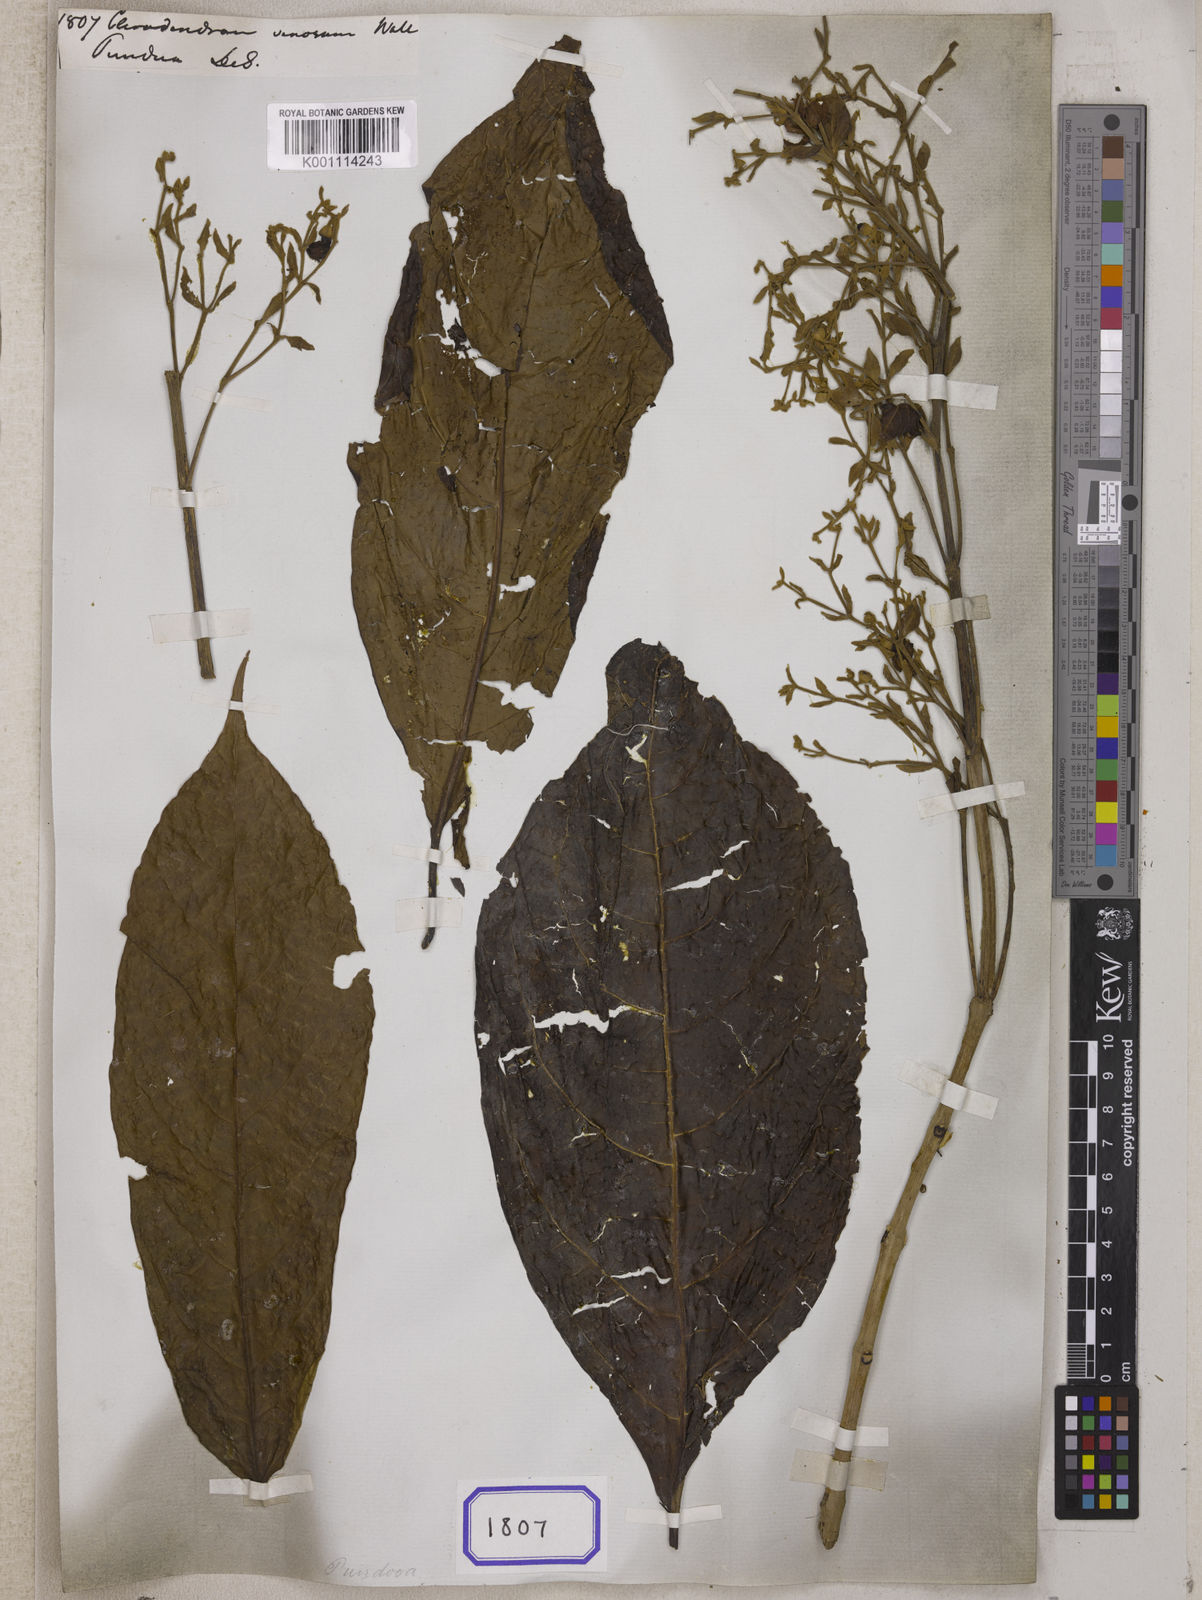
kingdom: Plantae
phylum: Tracheophyta
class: Magnoliopsida
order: Lamiales
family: Lamiaceae
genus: Clerodendrum
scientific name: Clerodendrum
